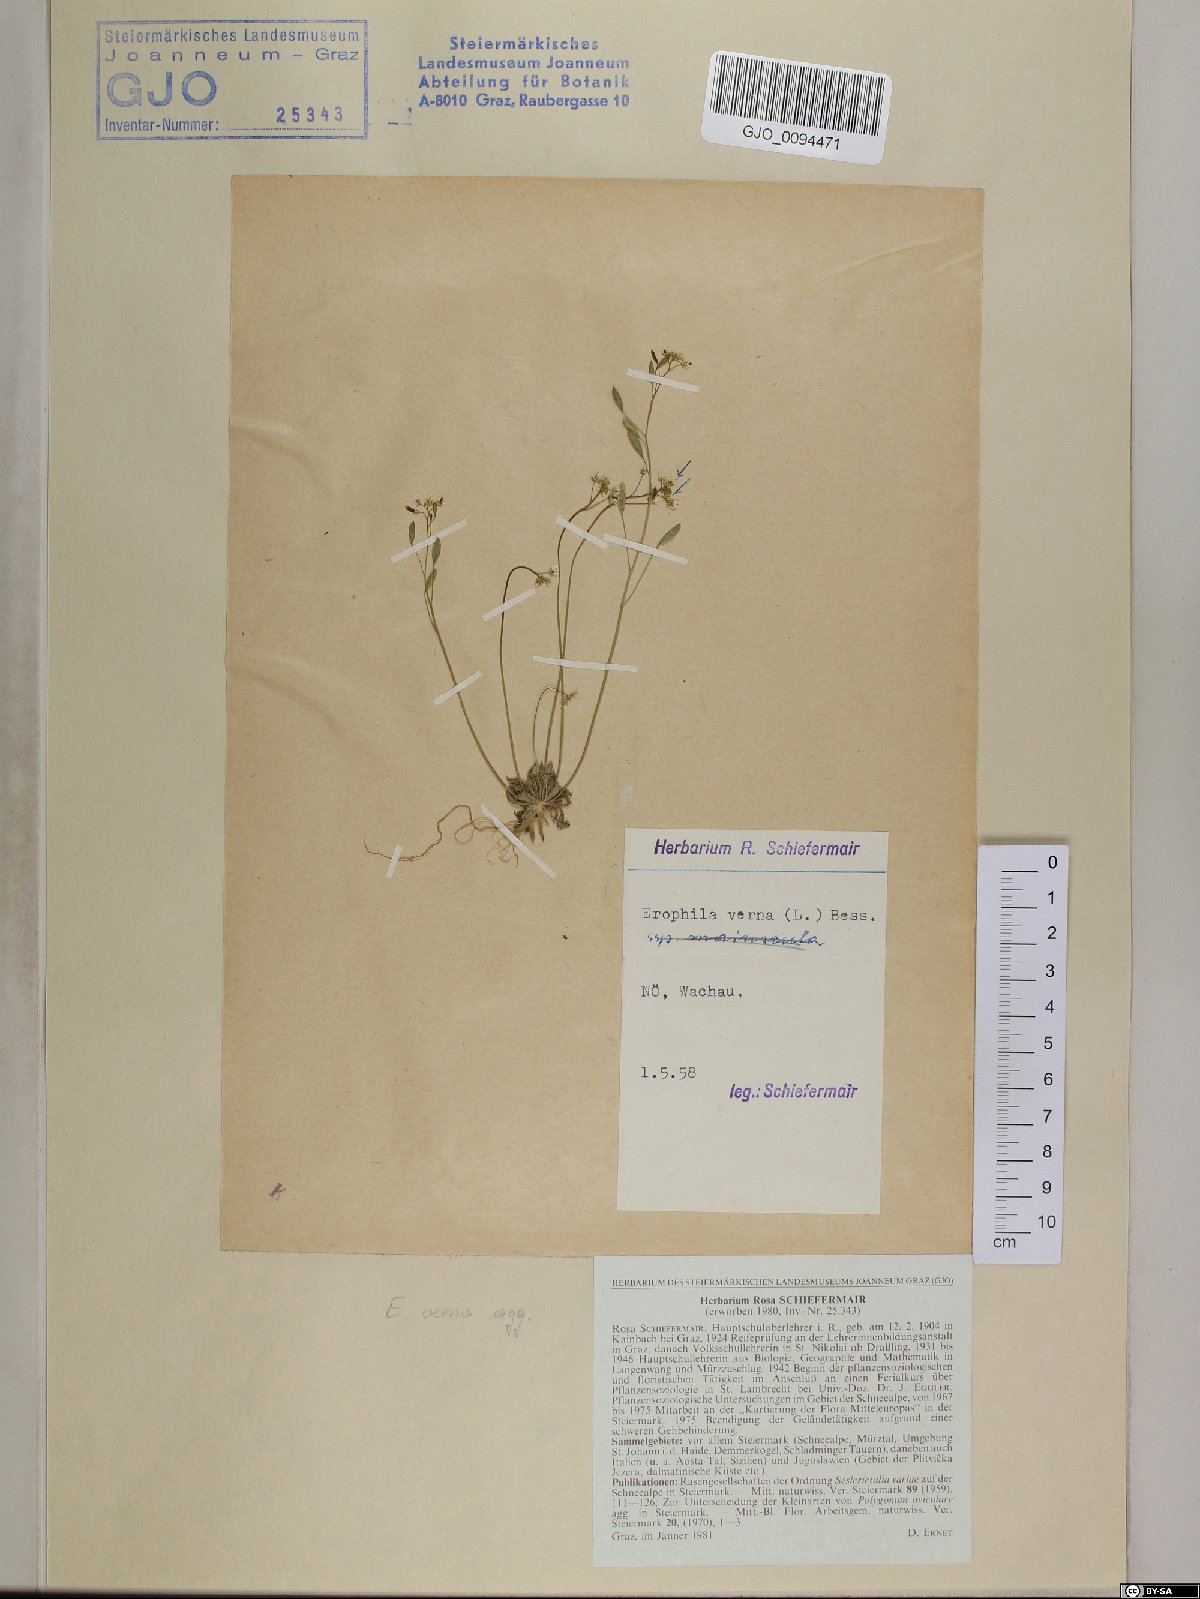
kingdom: Plantae
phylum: Tracheophyta
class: Magnoliopsida
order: Brassicales
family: Brassicaceae
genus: Draba
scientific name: Draba verna
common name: Spring draba
